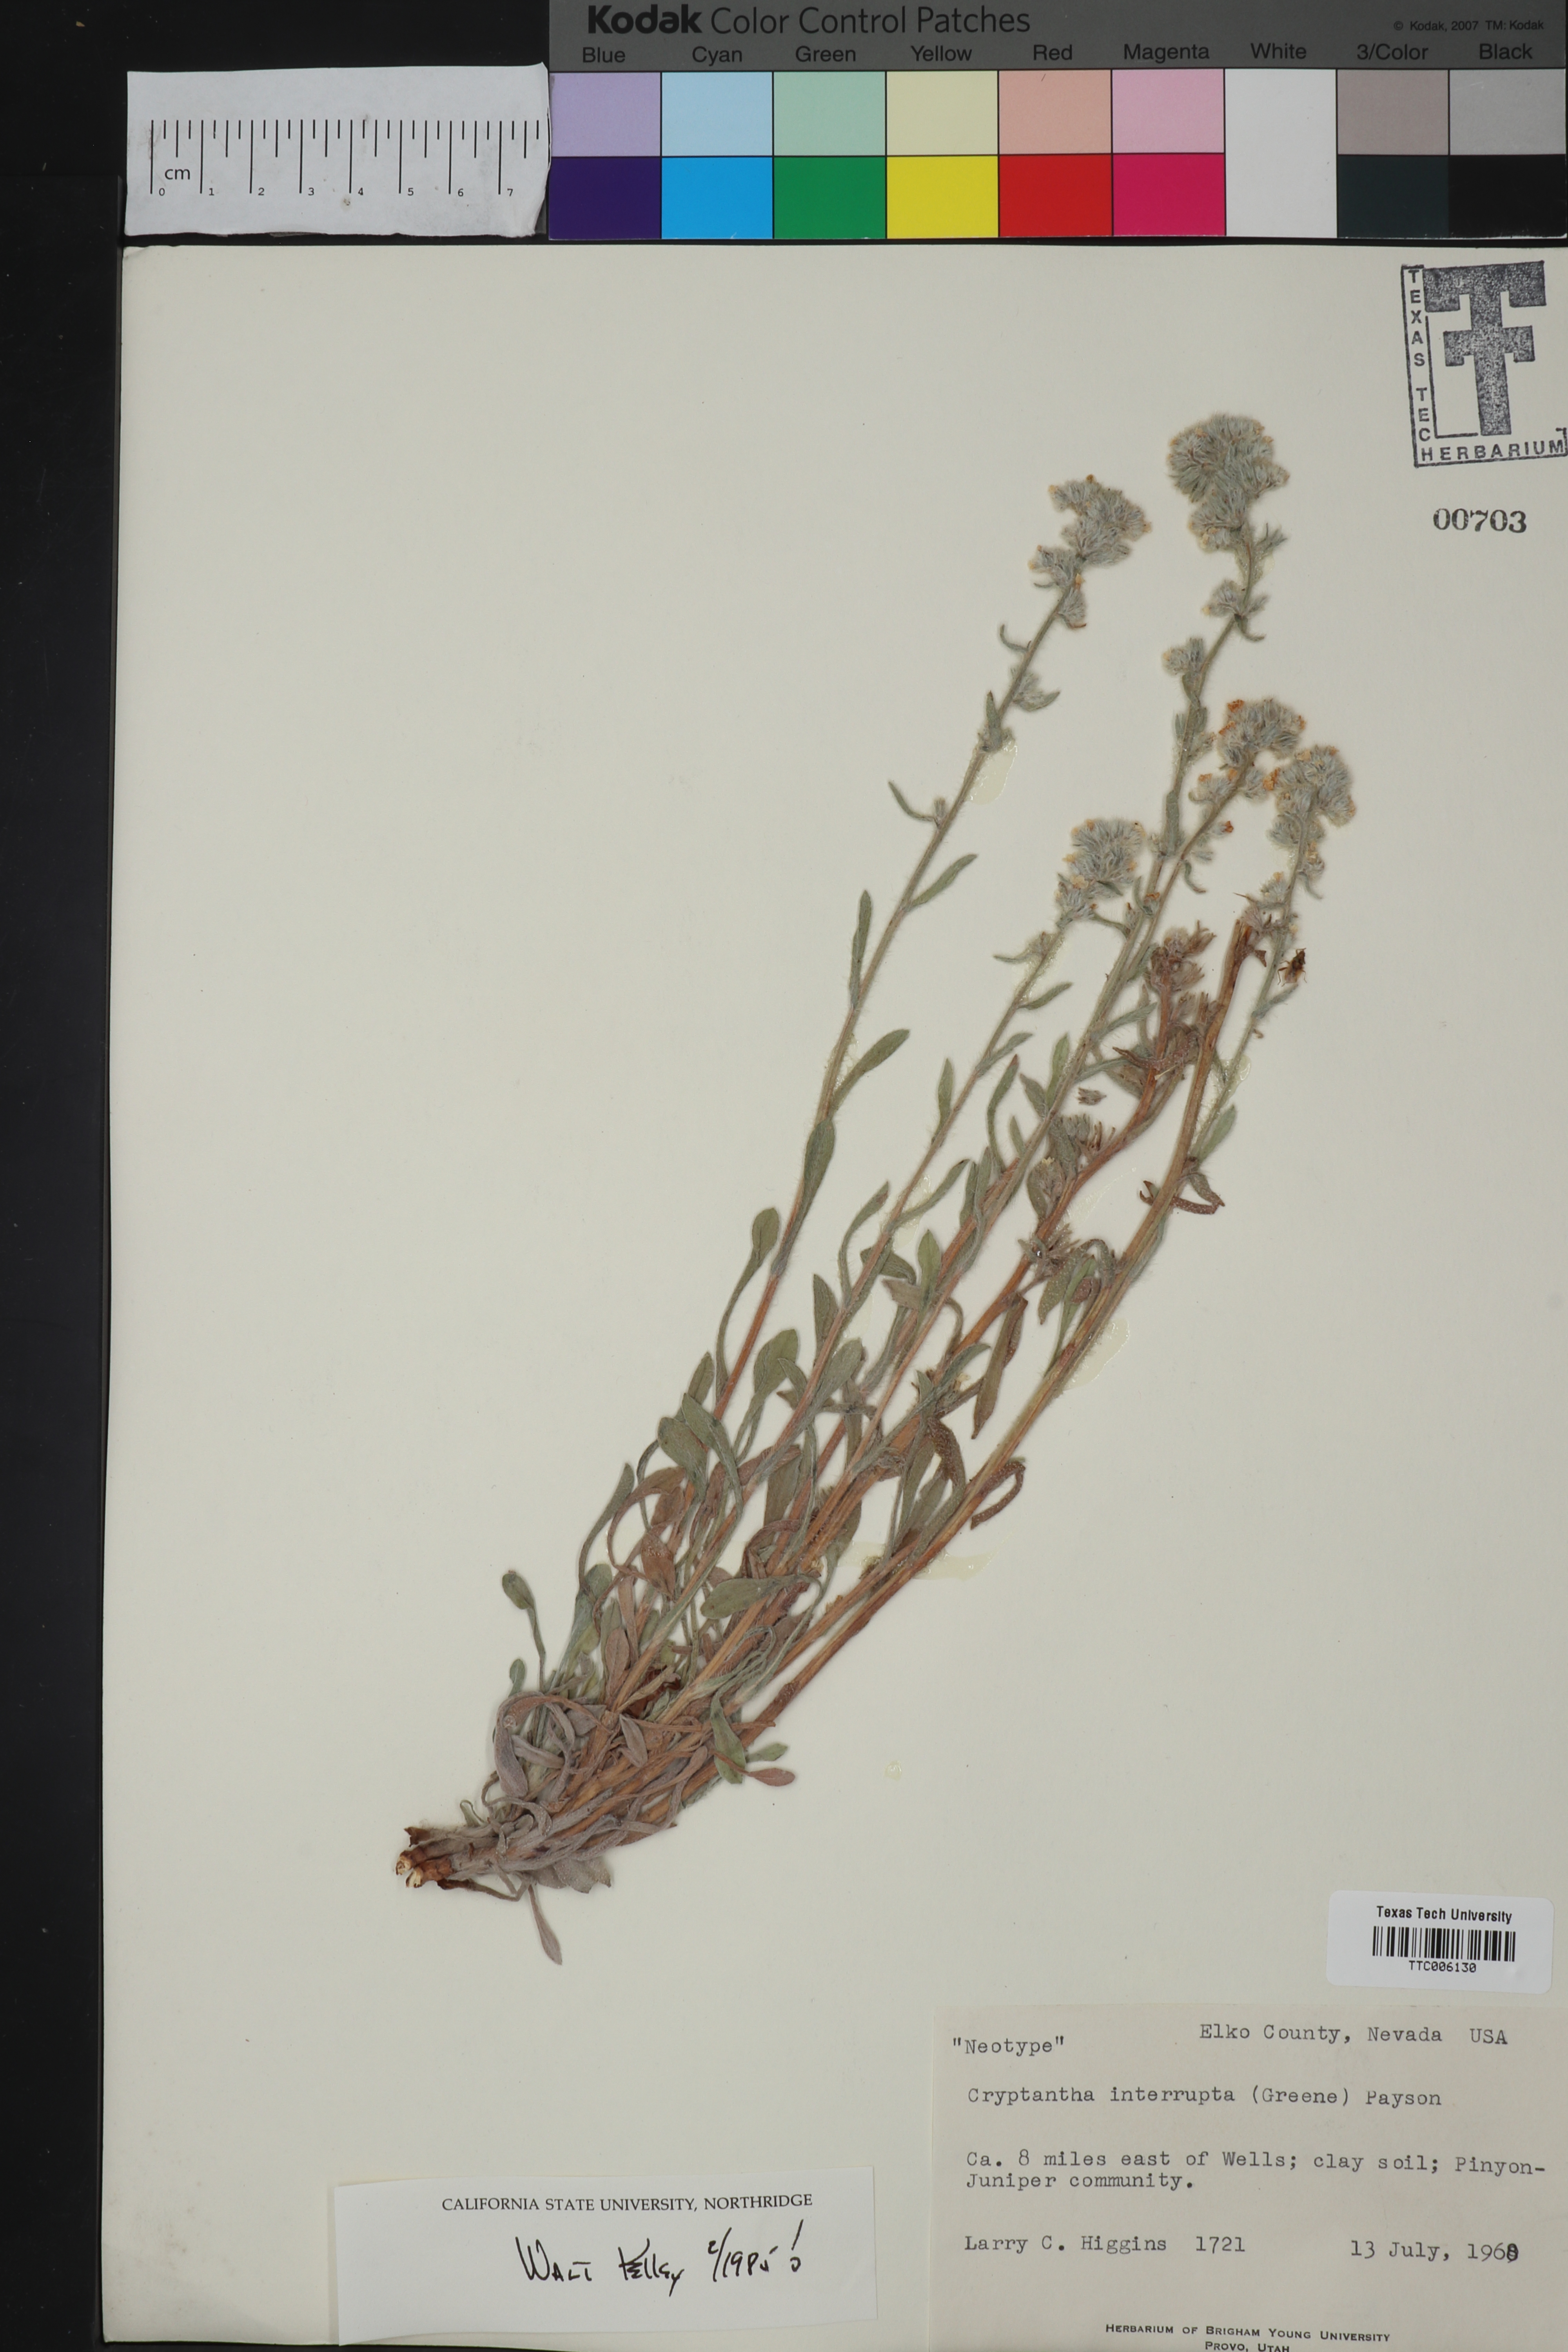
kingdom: Plantae
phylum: Tracheophyta
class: Magnoliopsida
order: Boraginales
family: Boraginaceae
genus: Oreocarya
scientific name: Oreocarya interrupta
